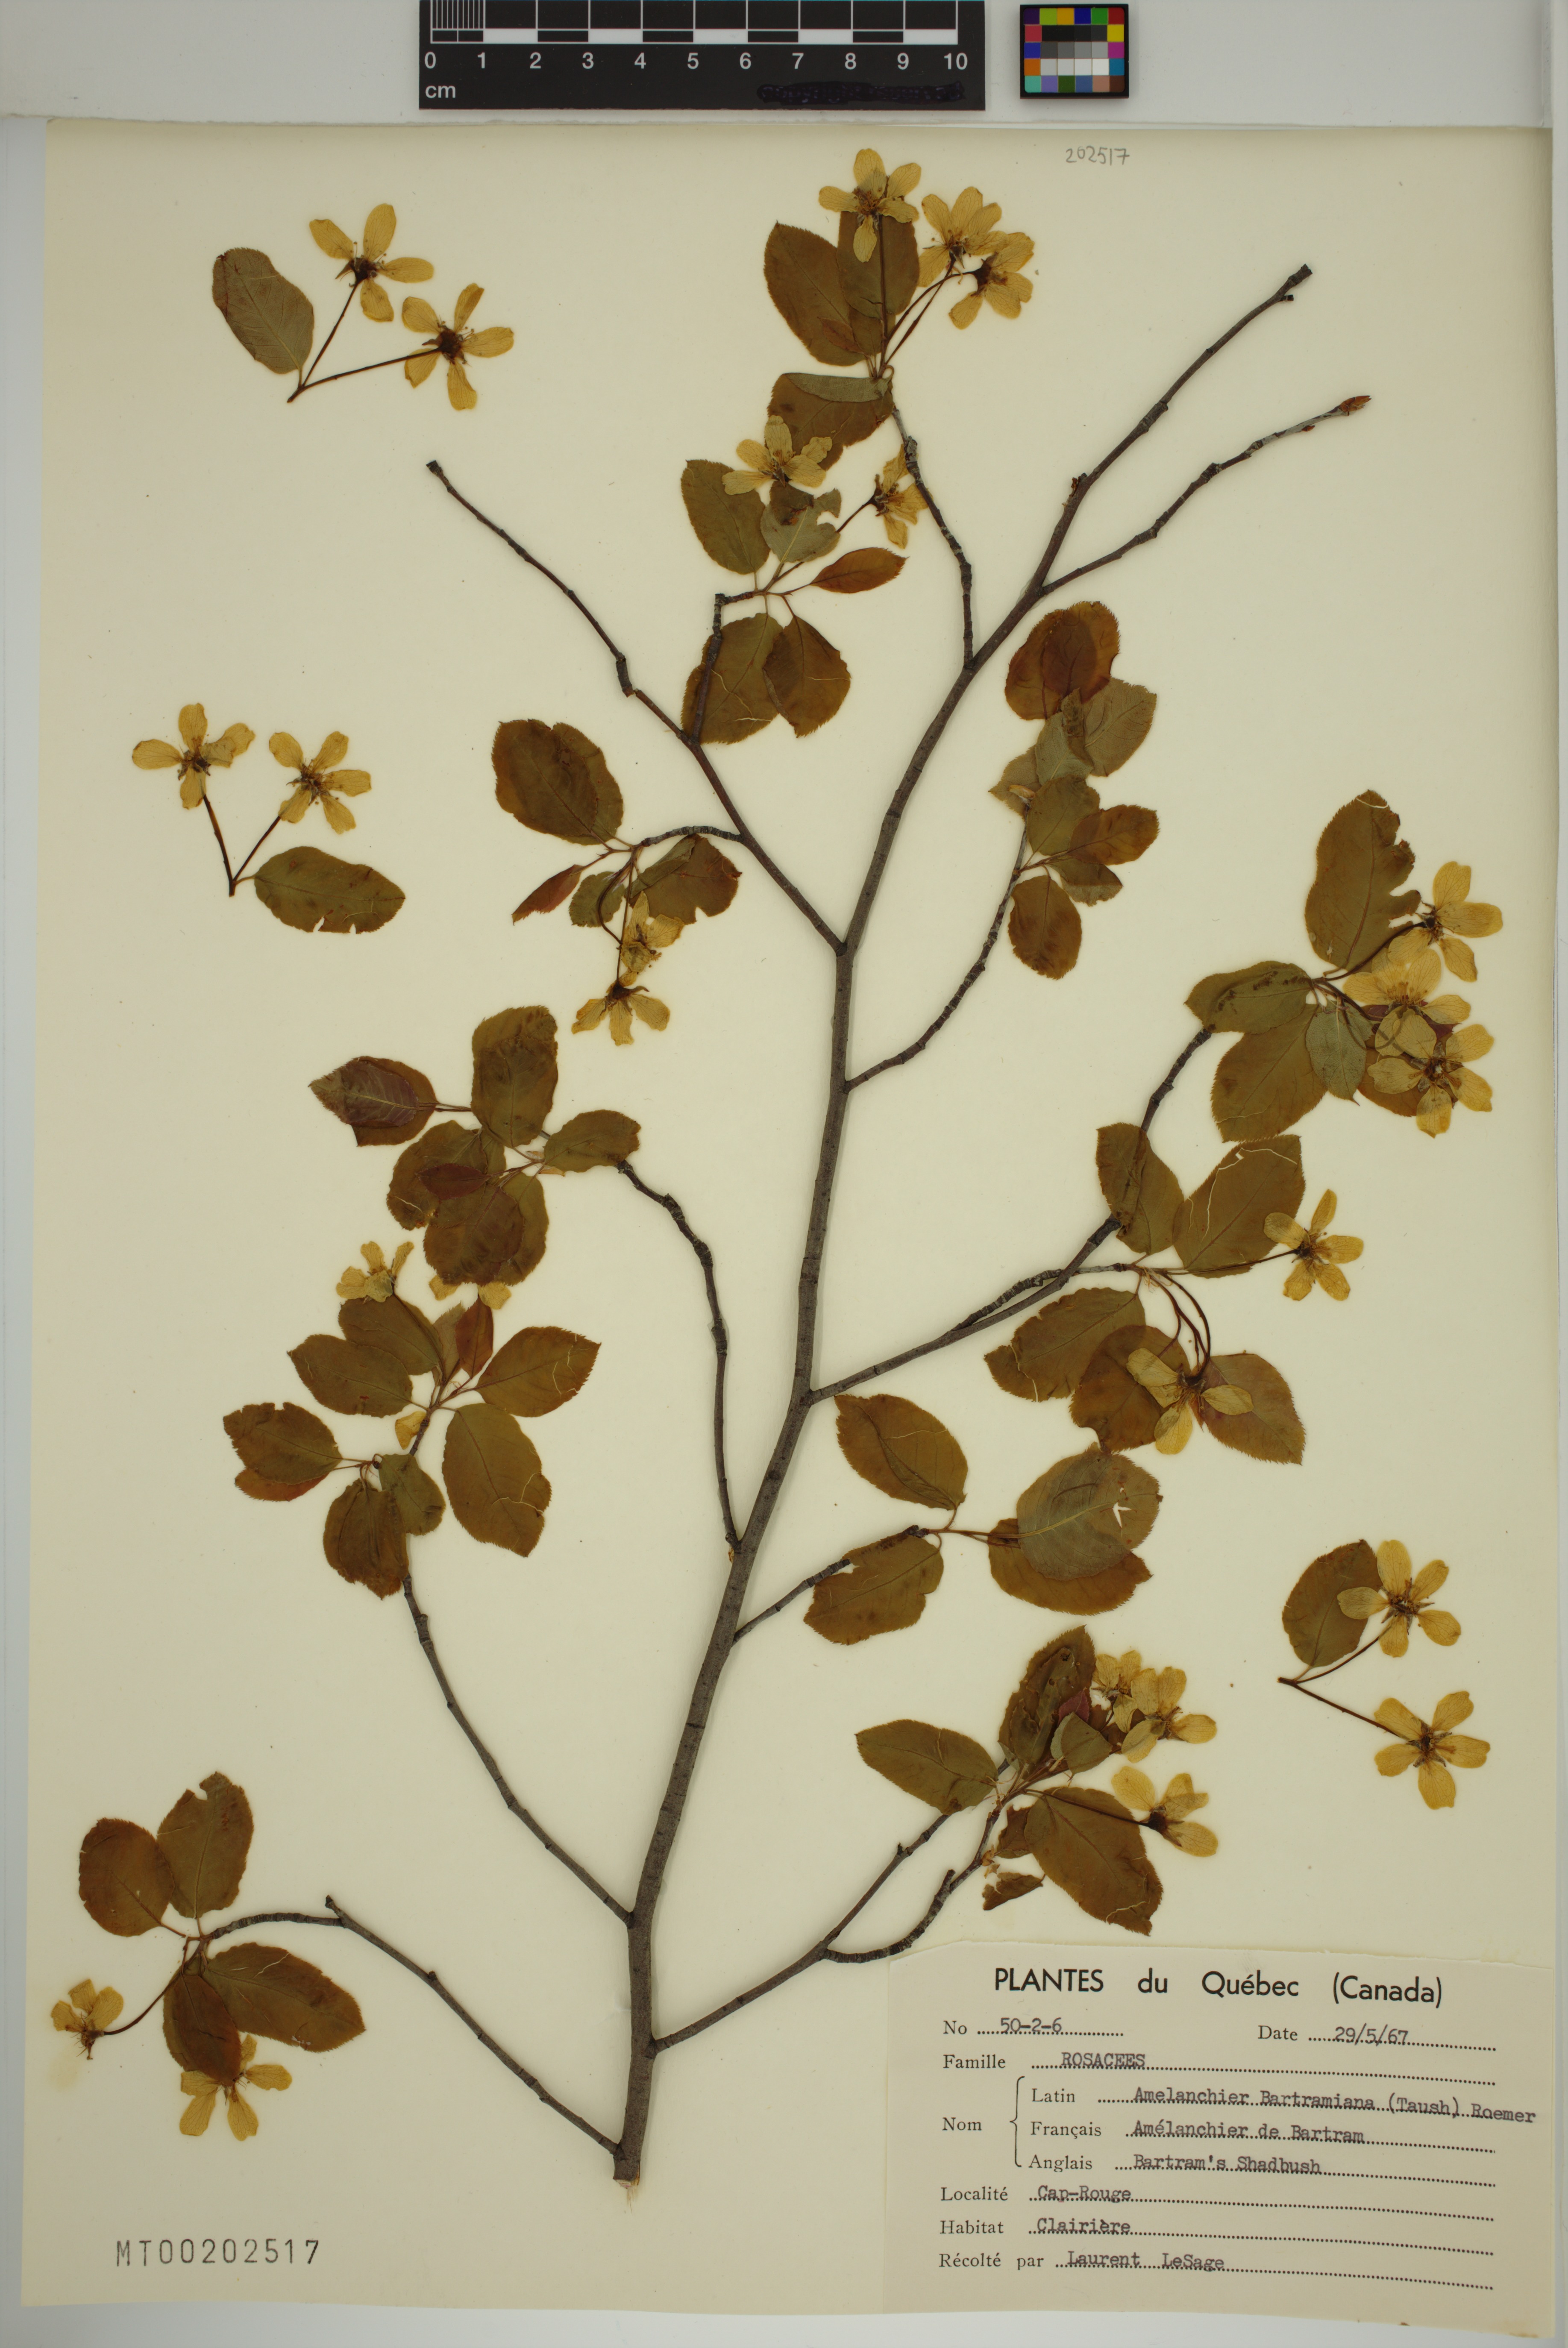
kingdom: Plantae
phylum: Tracheophyta
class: Magnoliopsida
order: Rosales
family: Rosaceae
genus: Amelanchier
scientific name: Amelanchier bartramiana
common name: Mountain serviceberry
